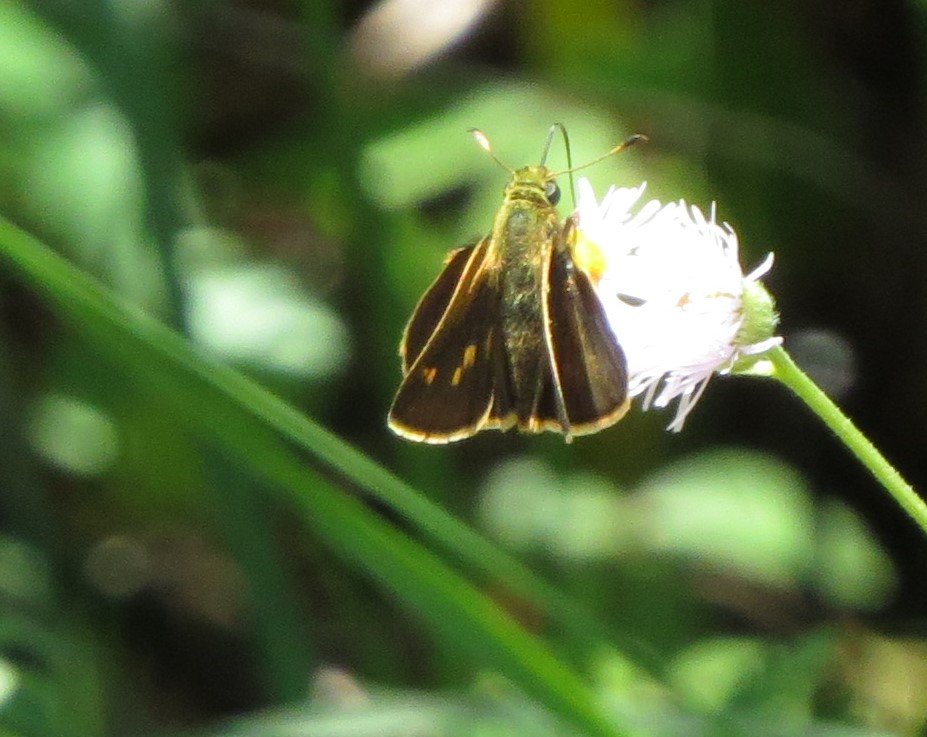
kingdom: Animalia
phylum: Arthropoda
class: Insecta
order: Lepidoptera
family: Hesperiidae
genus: Vernia
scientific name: Vernia verna
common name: Little Glassywing
